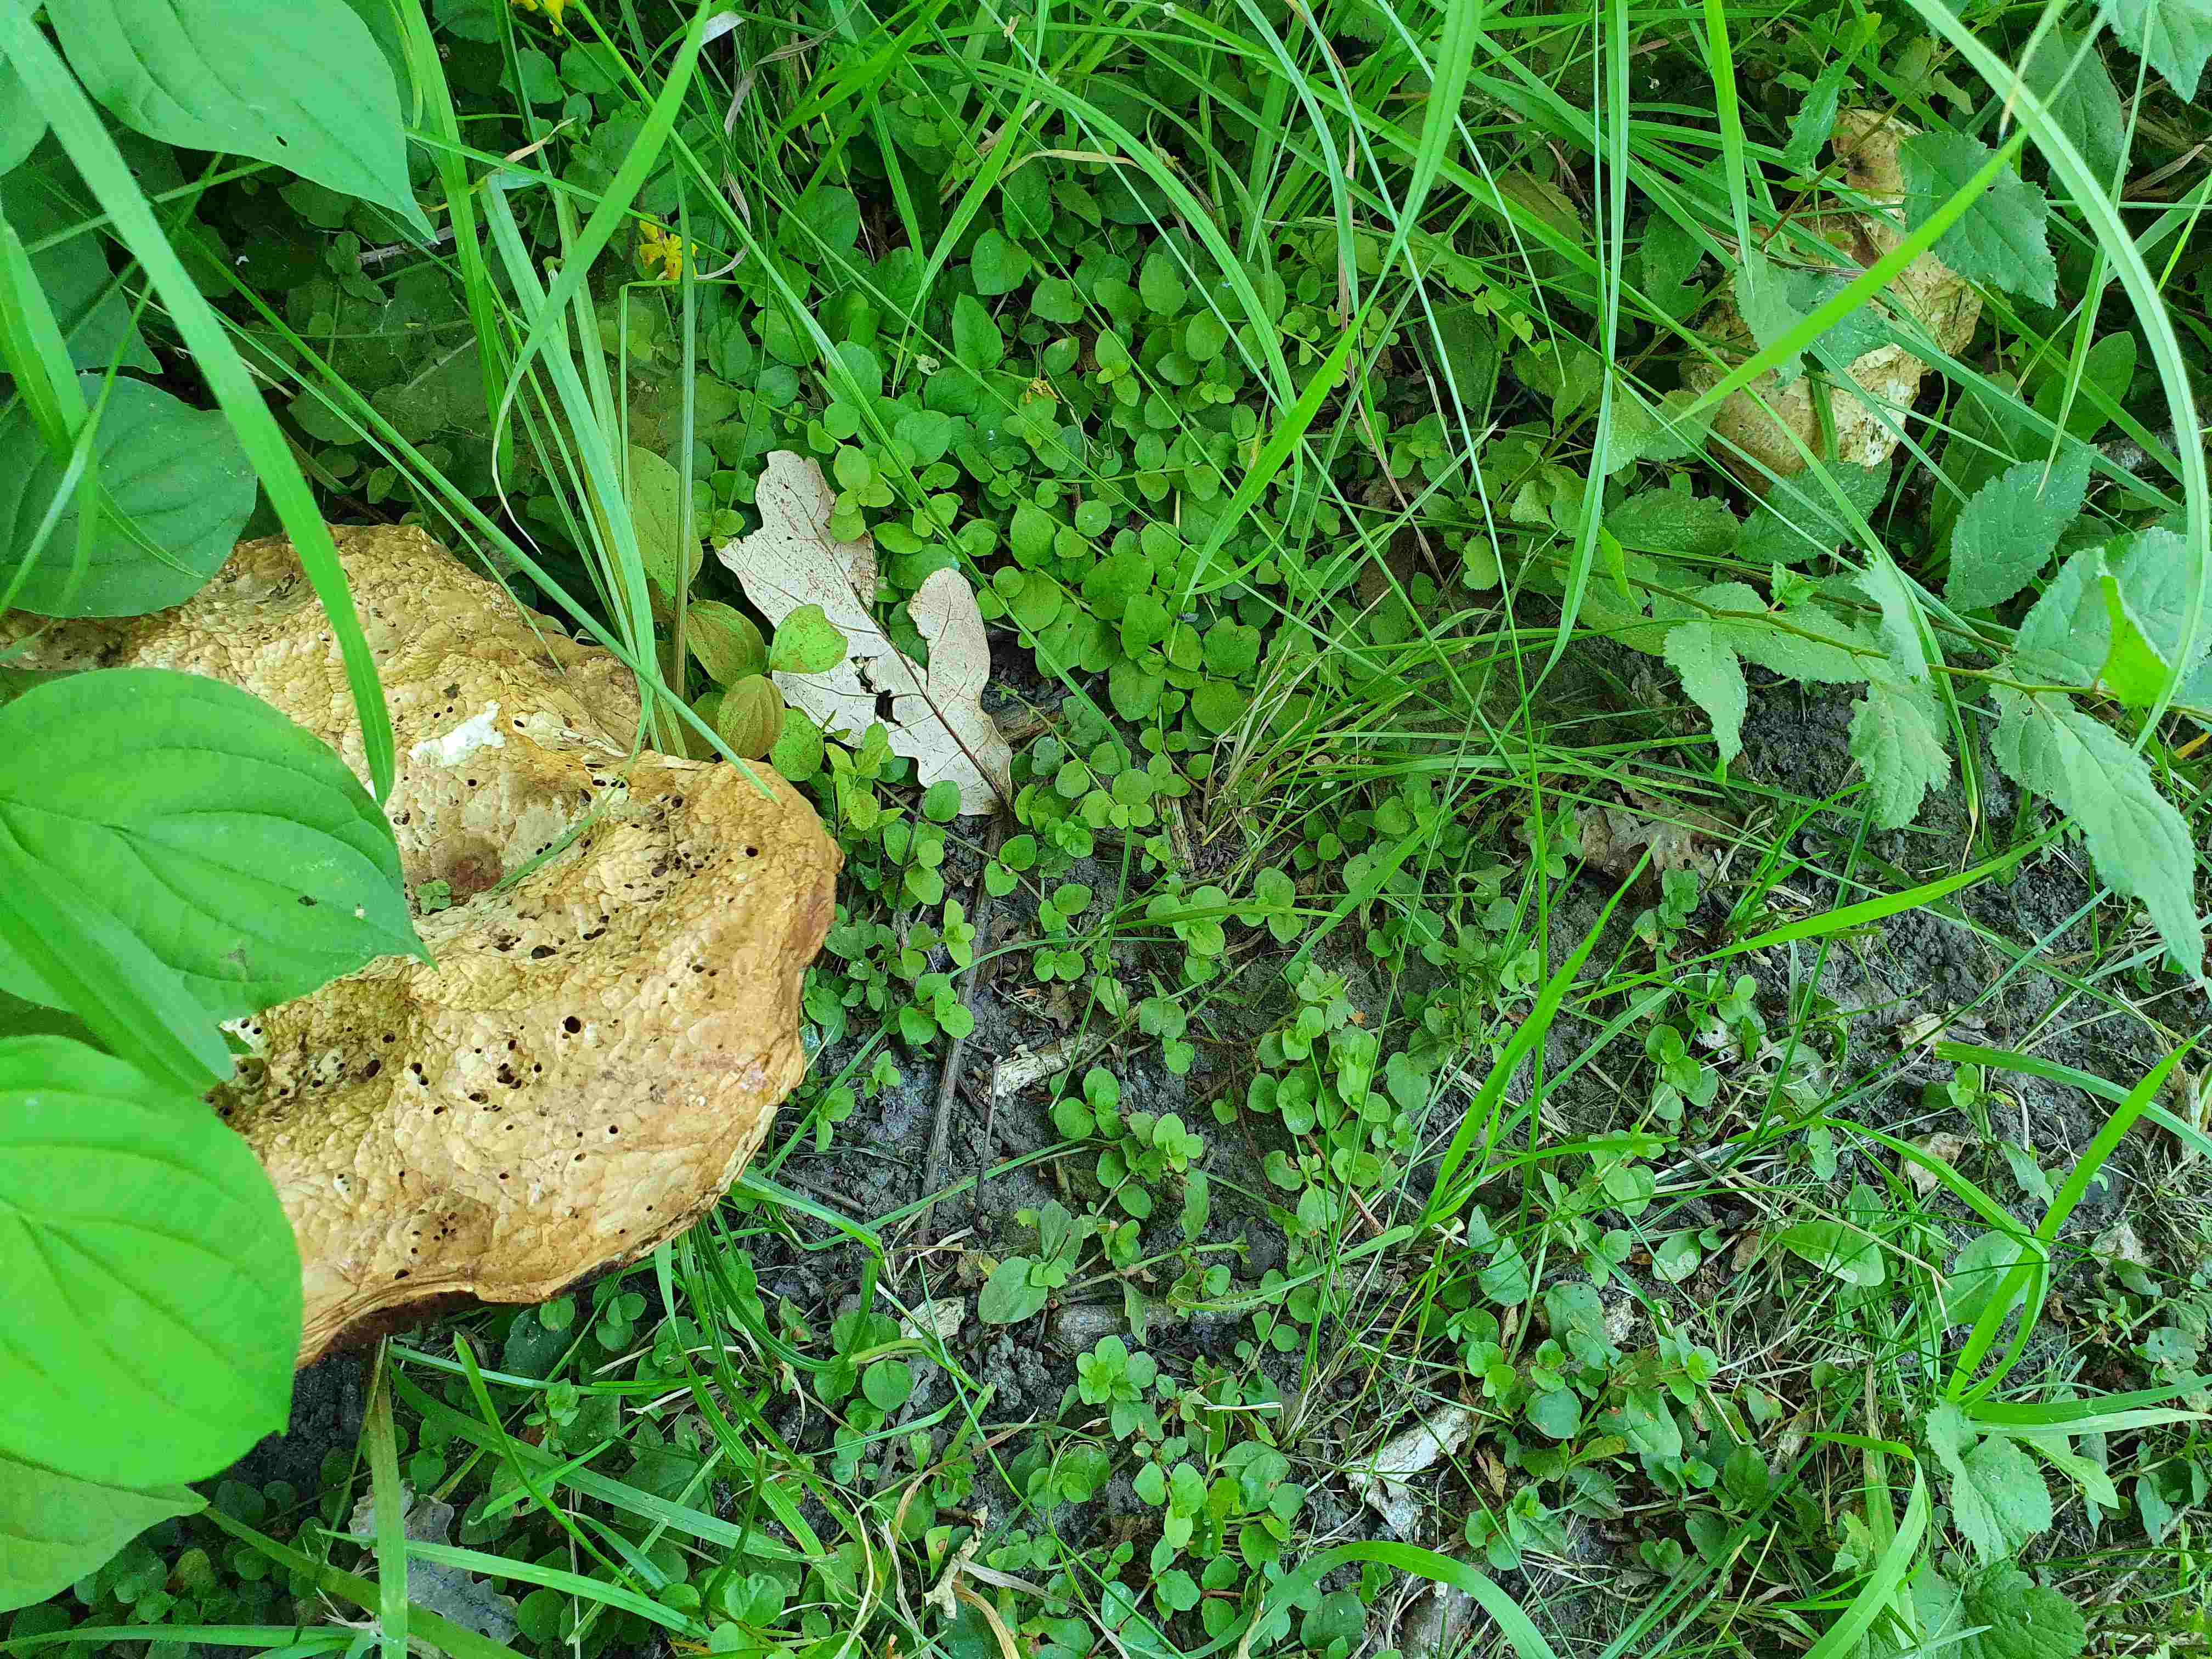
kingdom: Fungi
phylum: Basidiomycota
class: Agaricomycetes
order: Boletales
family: Boletaceae
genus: Caloboletus
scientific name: Caloboletus radicans
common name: rod-rørhat
